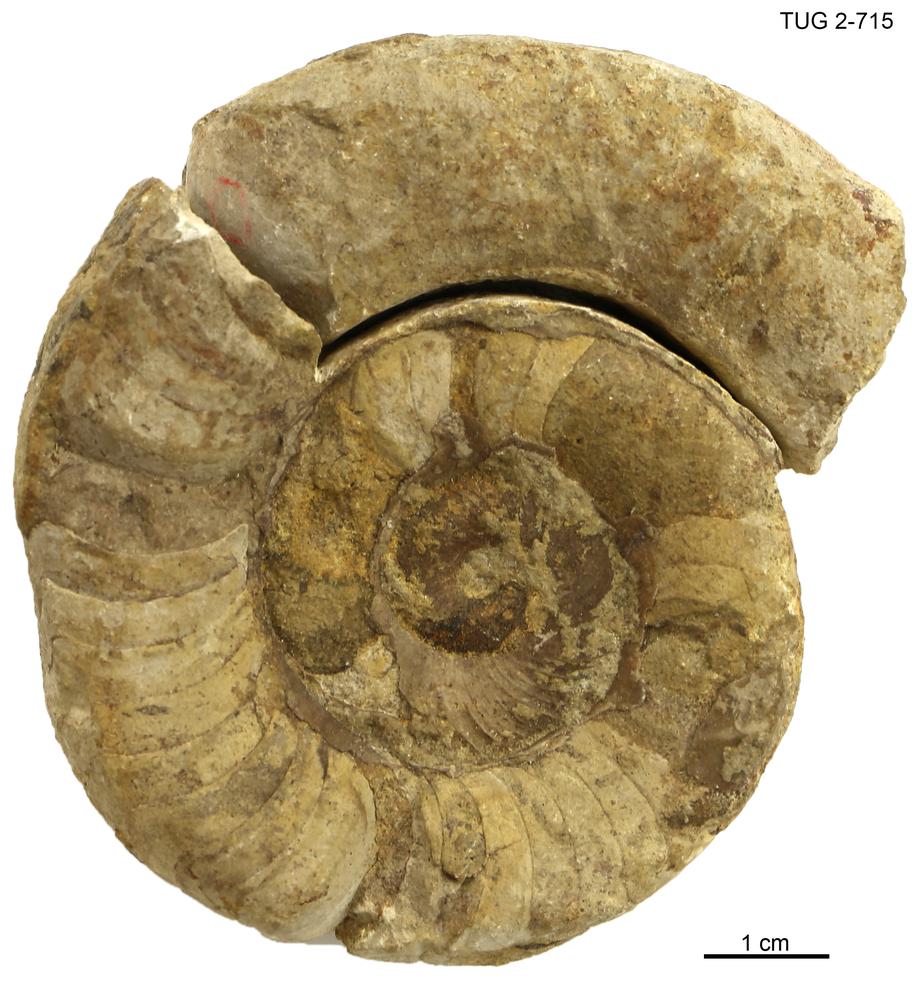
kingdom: Animalia
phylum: Mollusca
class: Cephalopoda
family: Trocholitidae
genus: Discoceras
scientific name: Discoceras antiquissimus
